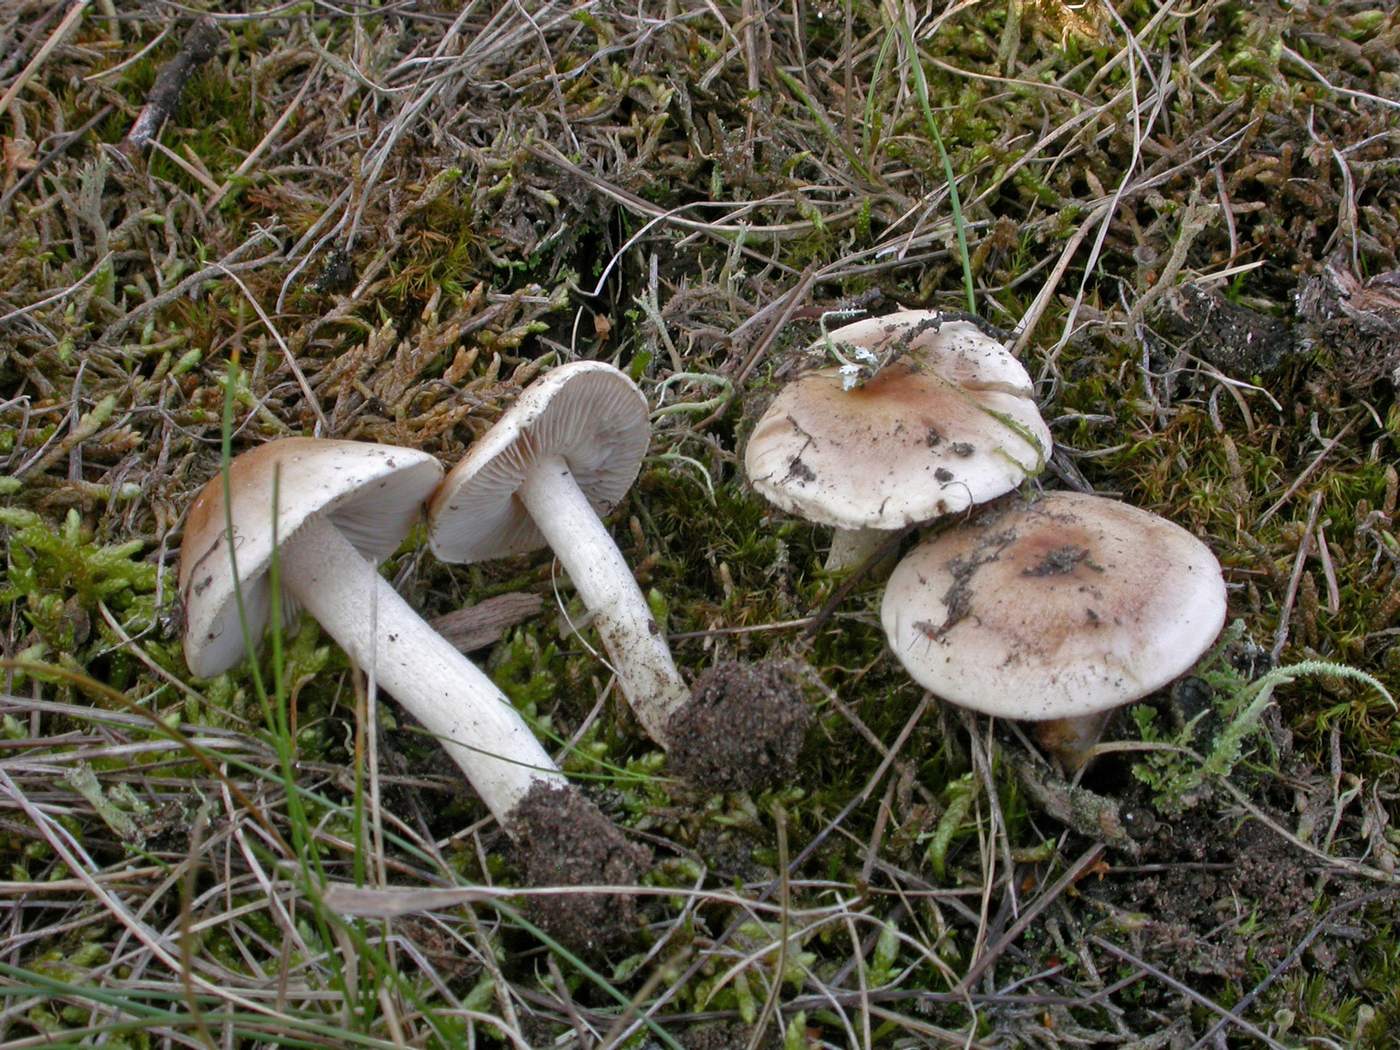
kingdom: Fungi
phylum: Basidiomycota
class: Agaricomycetes
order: Agaricales
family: Hymenogastraceae
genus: Hebeloma
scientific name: Hebeloma cavipes
